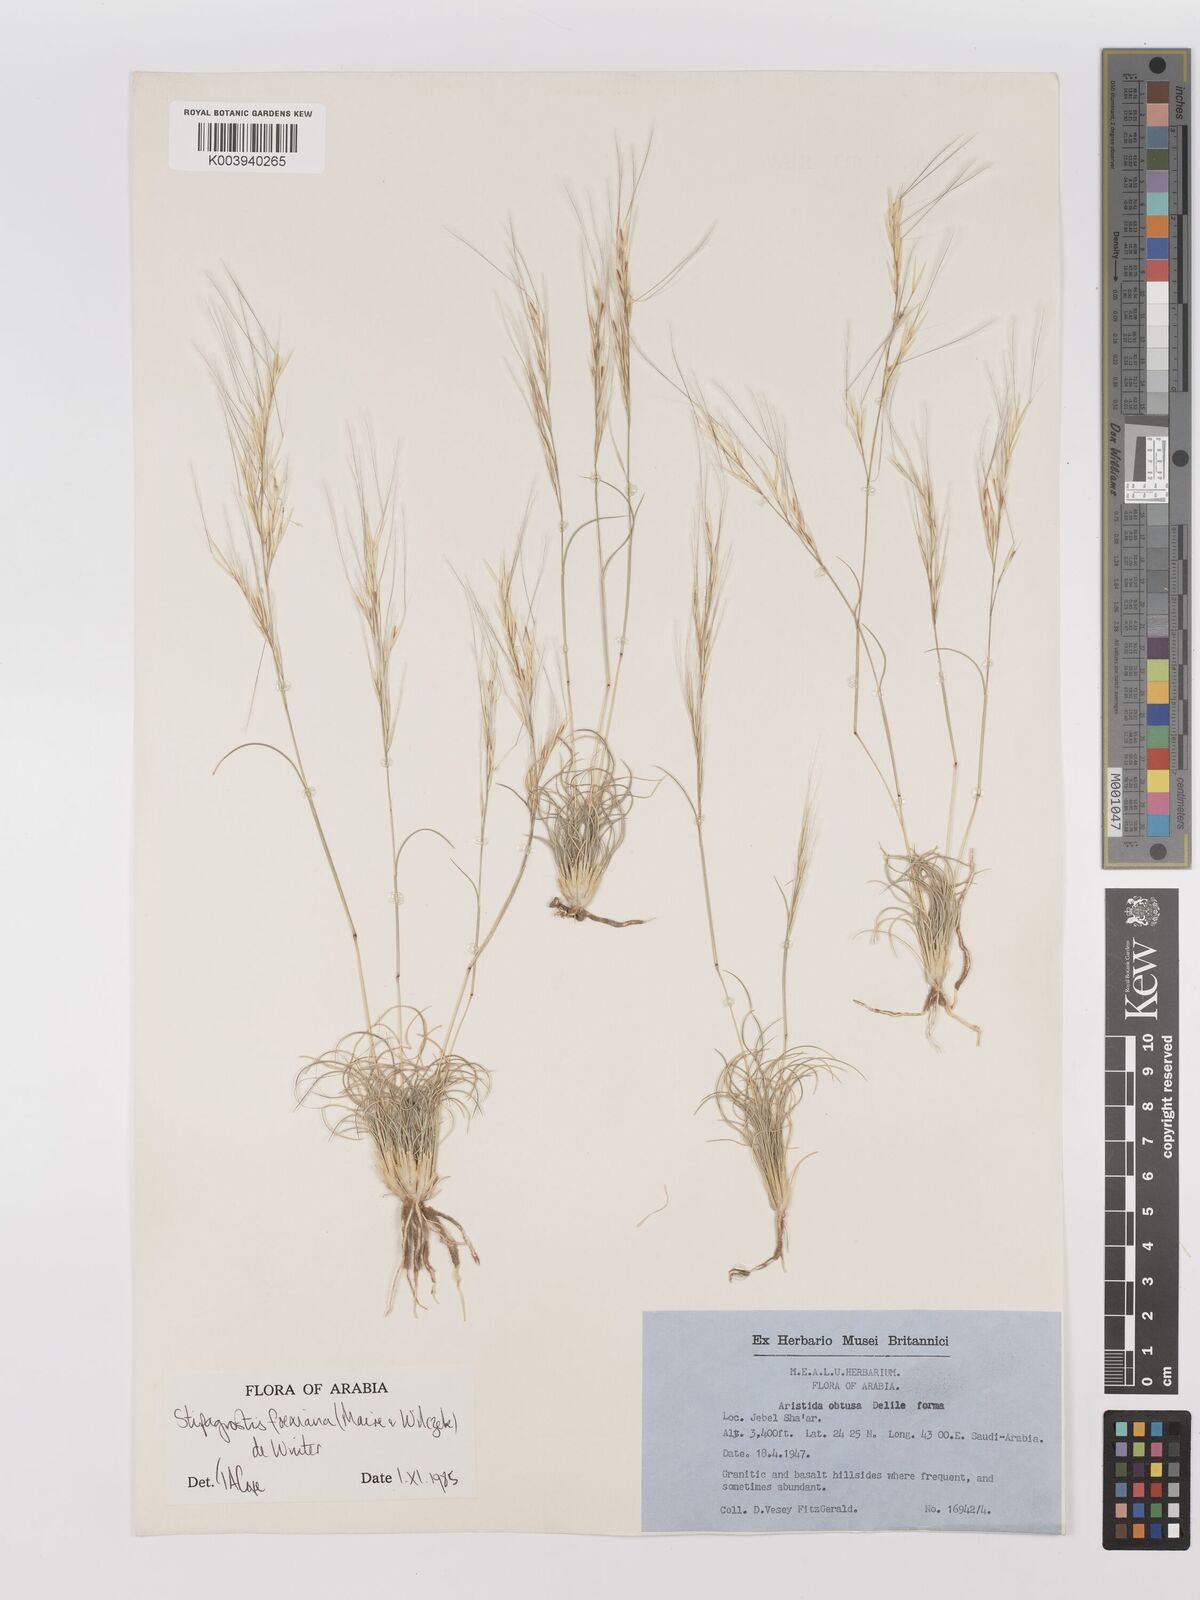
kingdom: Plantae
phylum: Tracheophyta
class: Liliopsida
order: Poales
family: Poaceae
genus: Stipagrostis
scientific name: Stipagrostis foexiana
